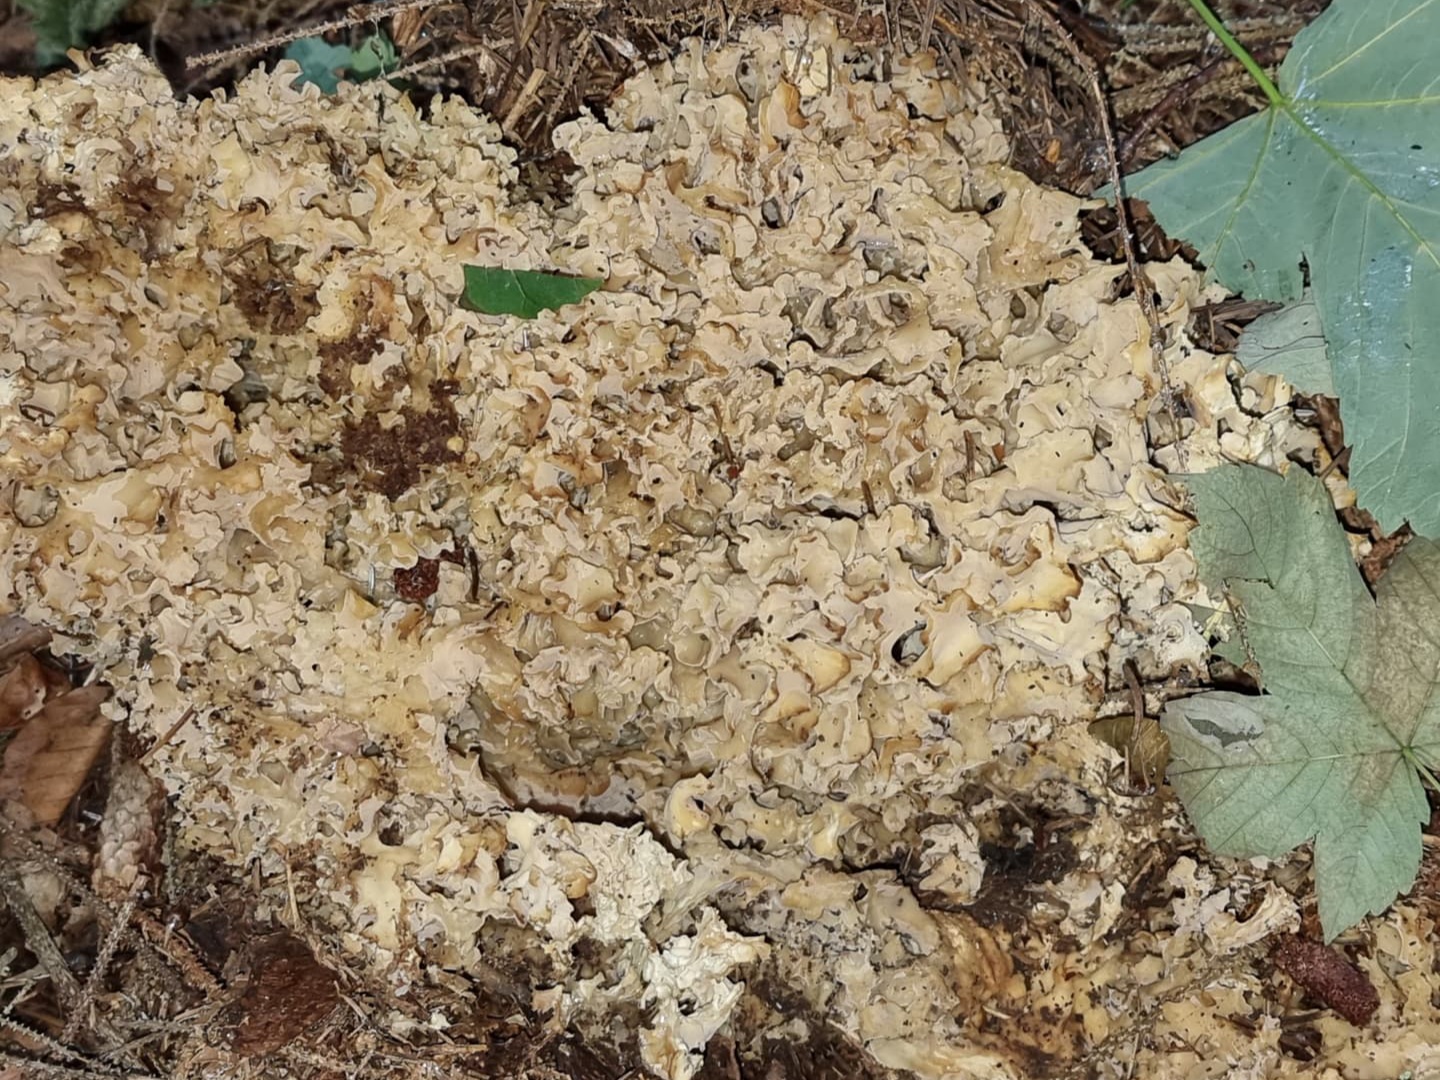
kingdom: Fungi
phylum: Basidiomycota
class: Agaricomycetes
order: Polyporales
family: Sparassidaceae
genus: Sparassis
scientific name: Sparassis crispa
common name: kruset blomkålssvamp
